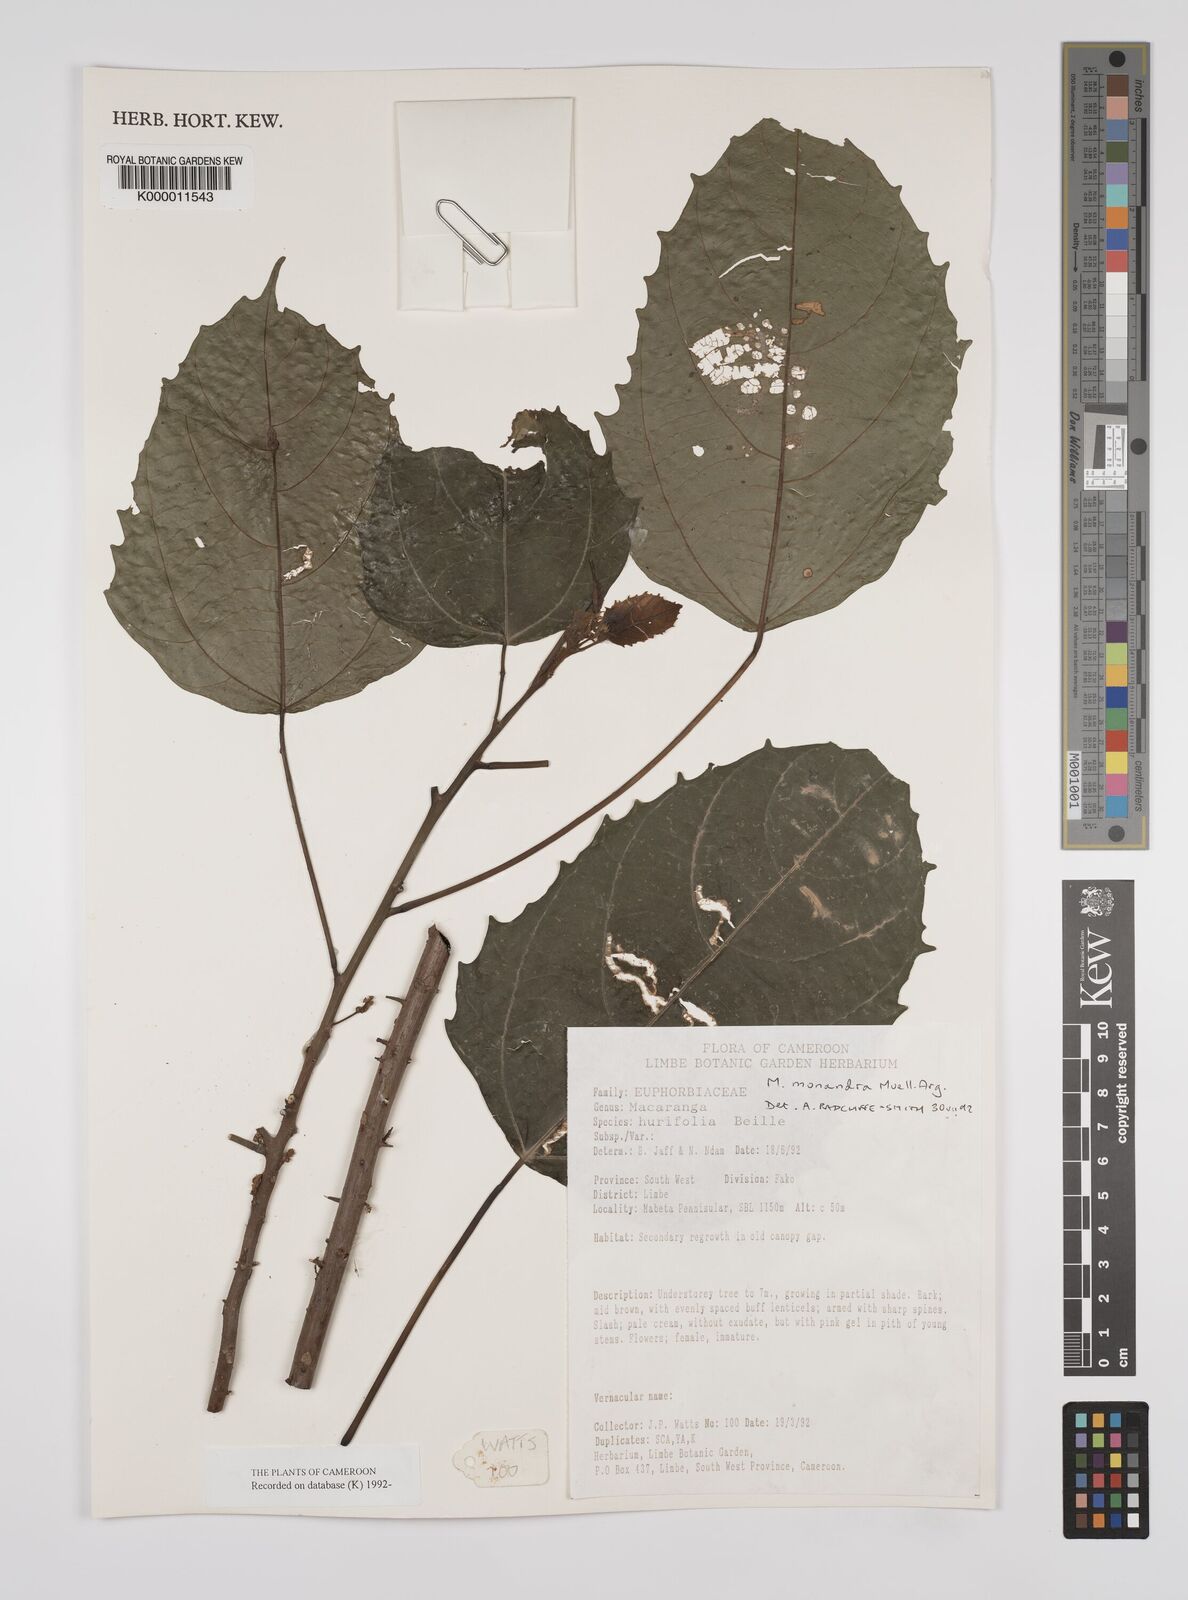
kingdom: Plantae
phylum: Tracheophyta
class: Magnoliopsida
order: Malpighiales
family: Euphorbiaceae
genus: Macaranga
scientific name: Macaranga
